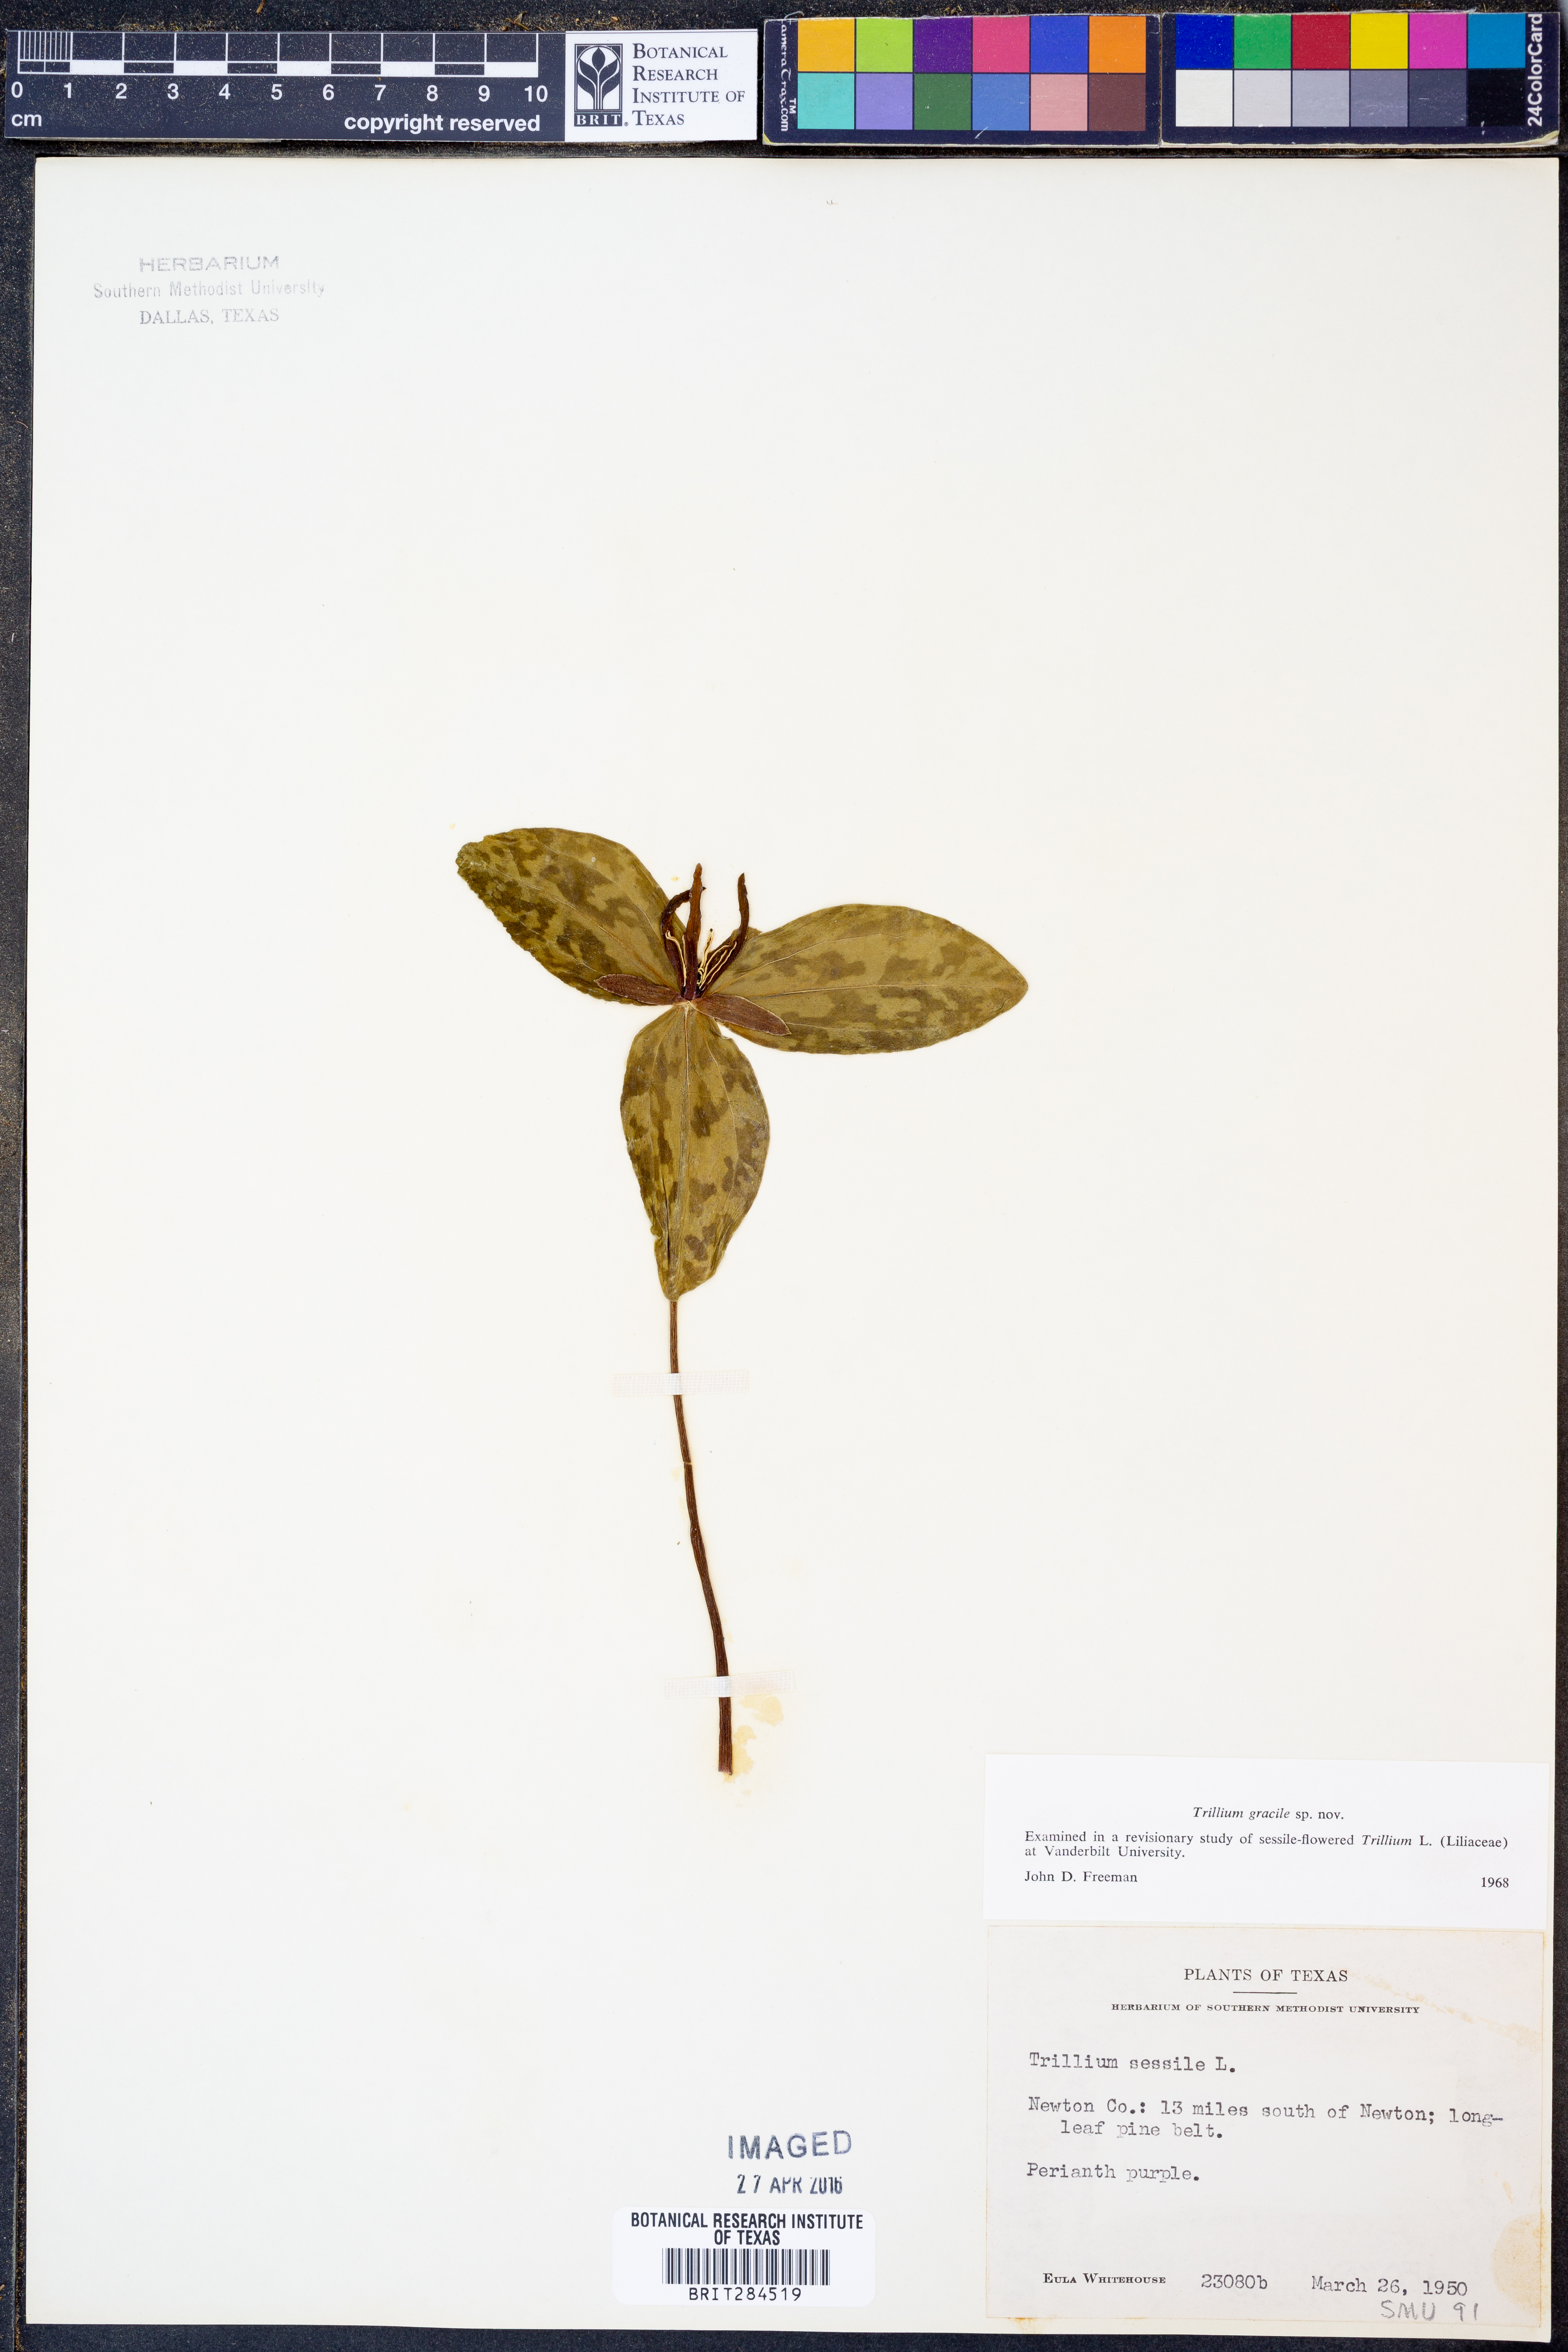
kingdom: Plantae
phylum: Tracheophyta
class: Liliopsida
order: Liliales
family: Melanthiaceae
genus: Trillium
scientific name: Trillium gracile
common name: Graceful trillium
